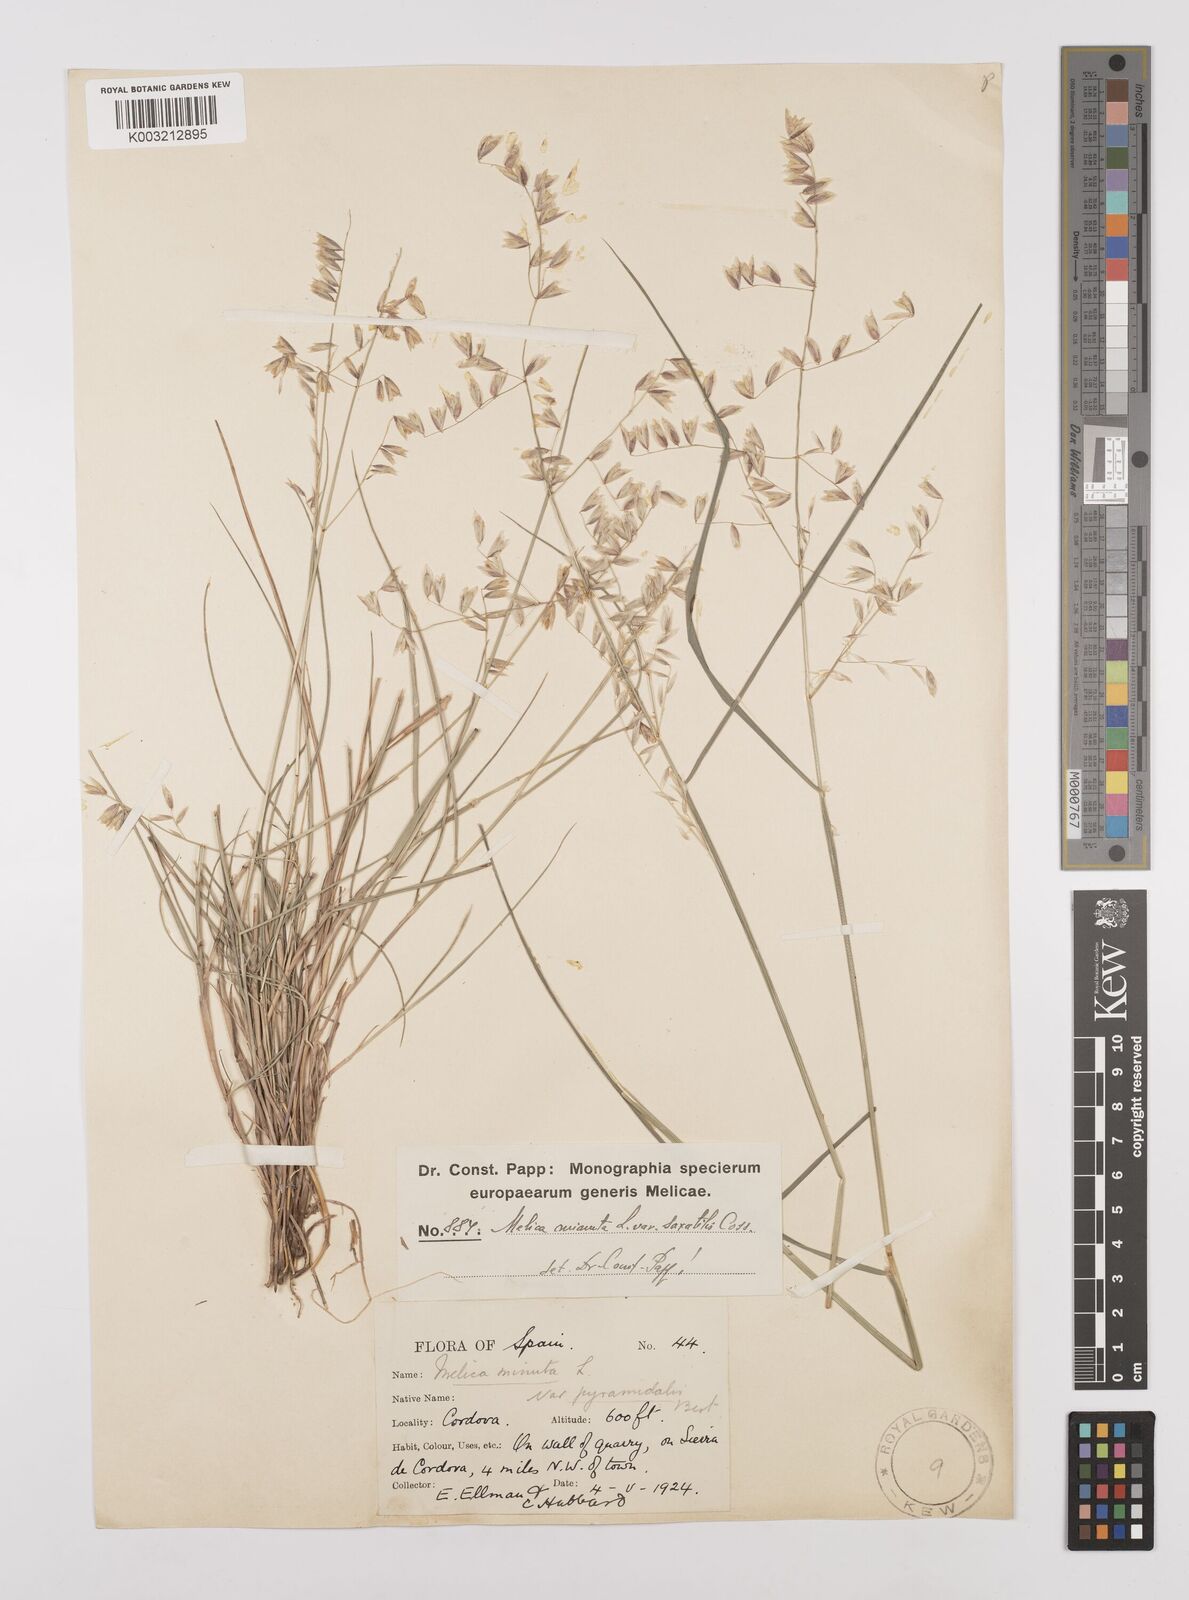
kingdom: Plantae
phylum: Tracheophyta
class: Liliopsida
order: Poales
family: Poaceae
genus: Melica
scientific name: Melica minuta
